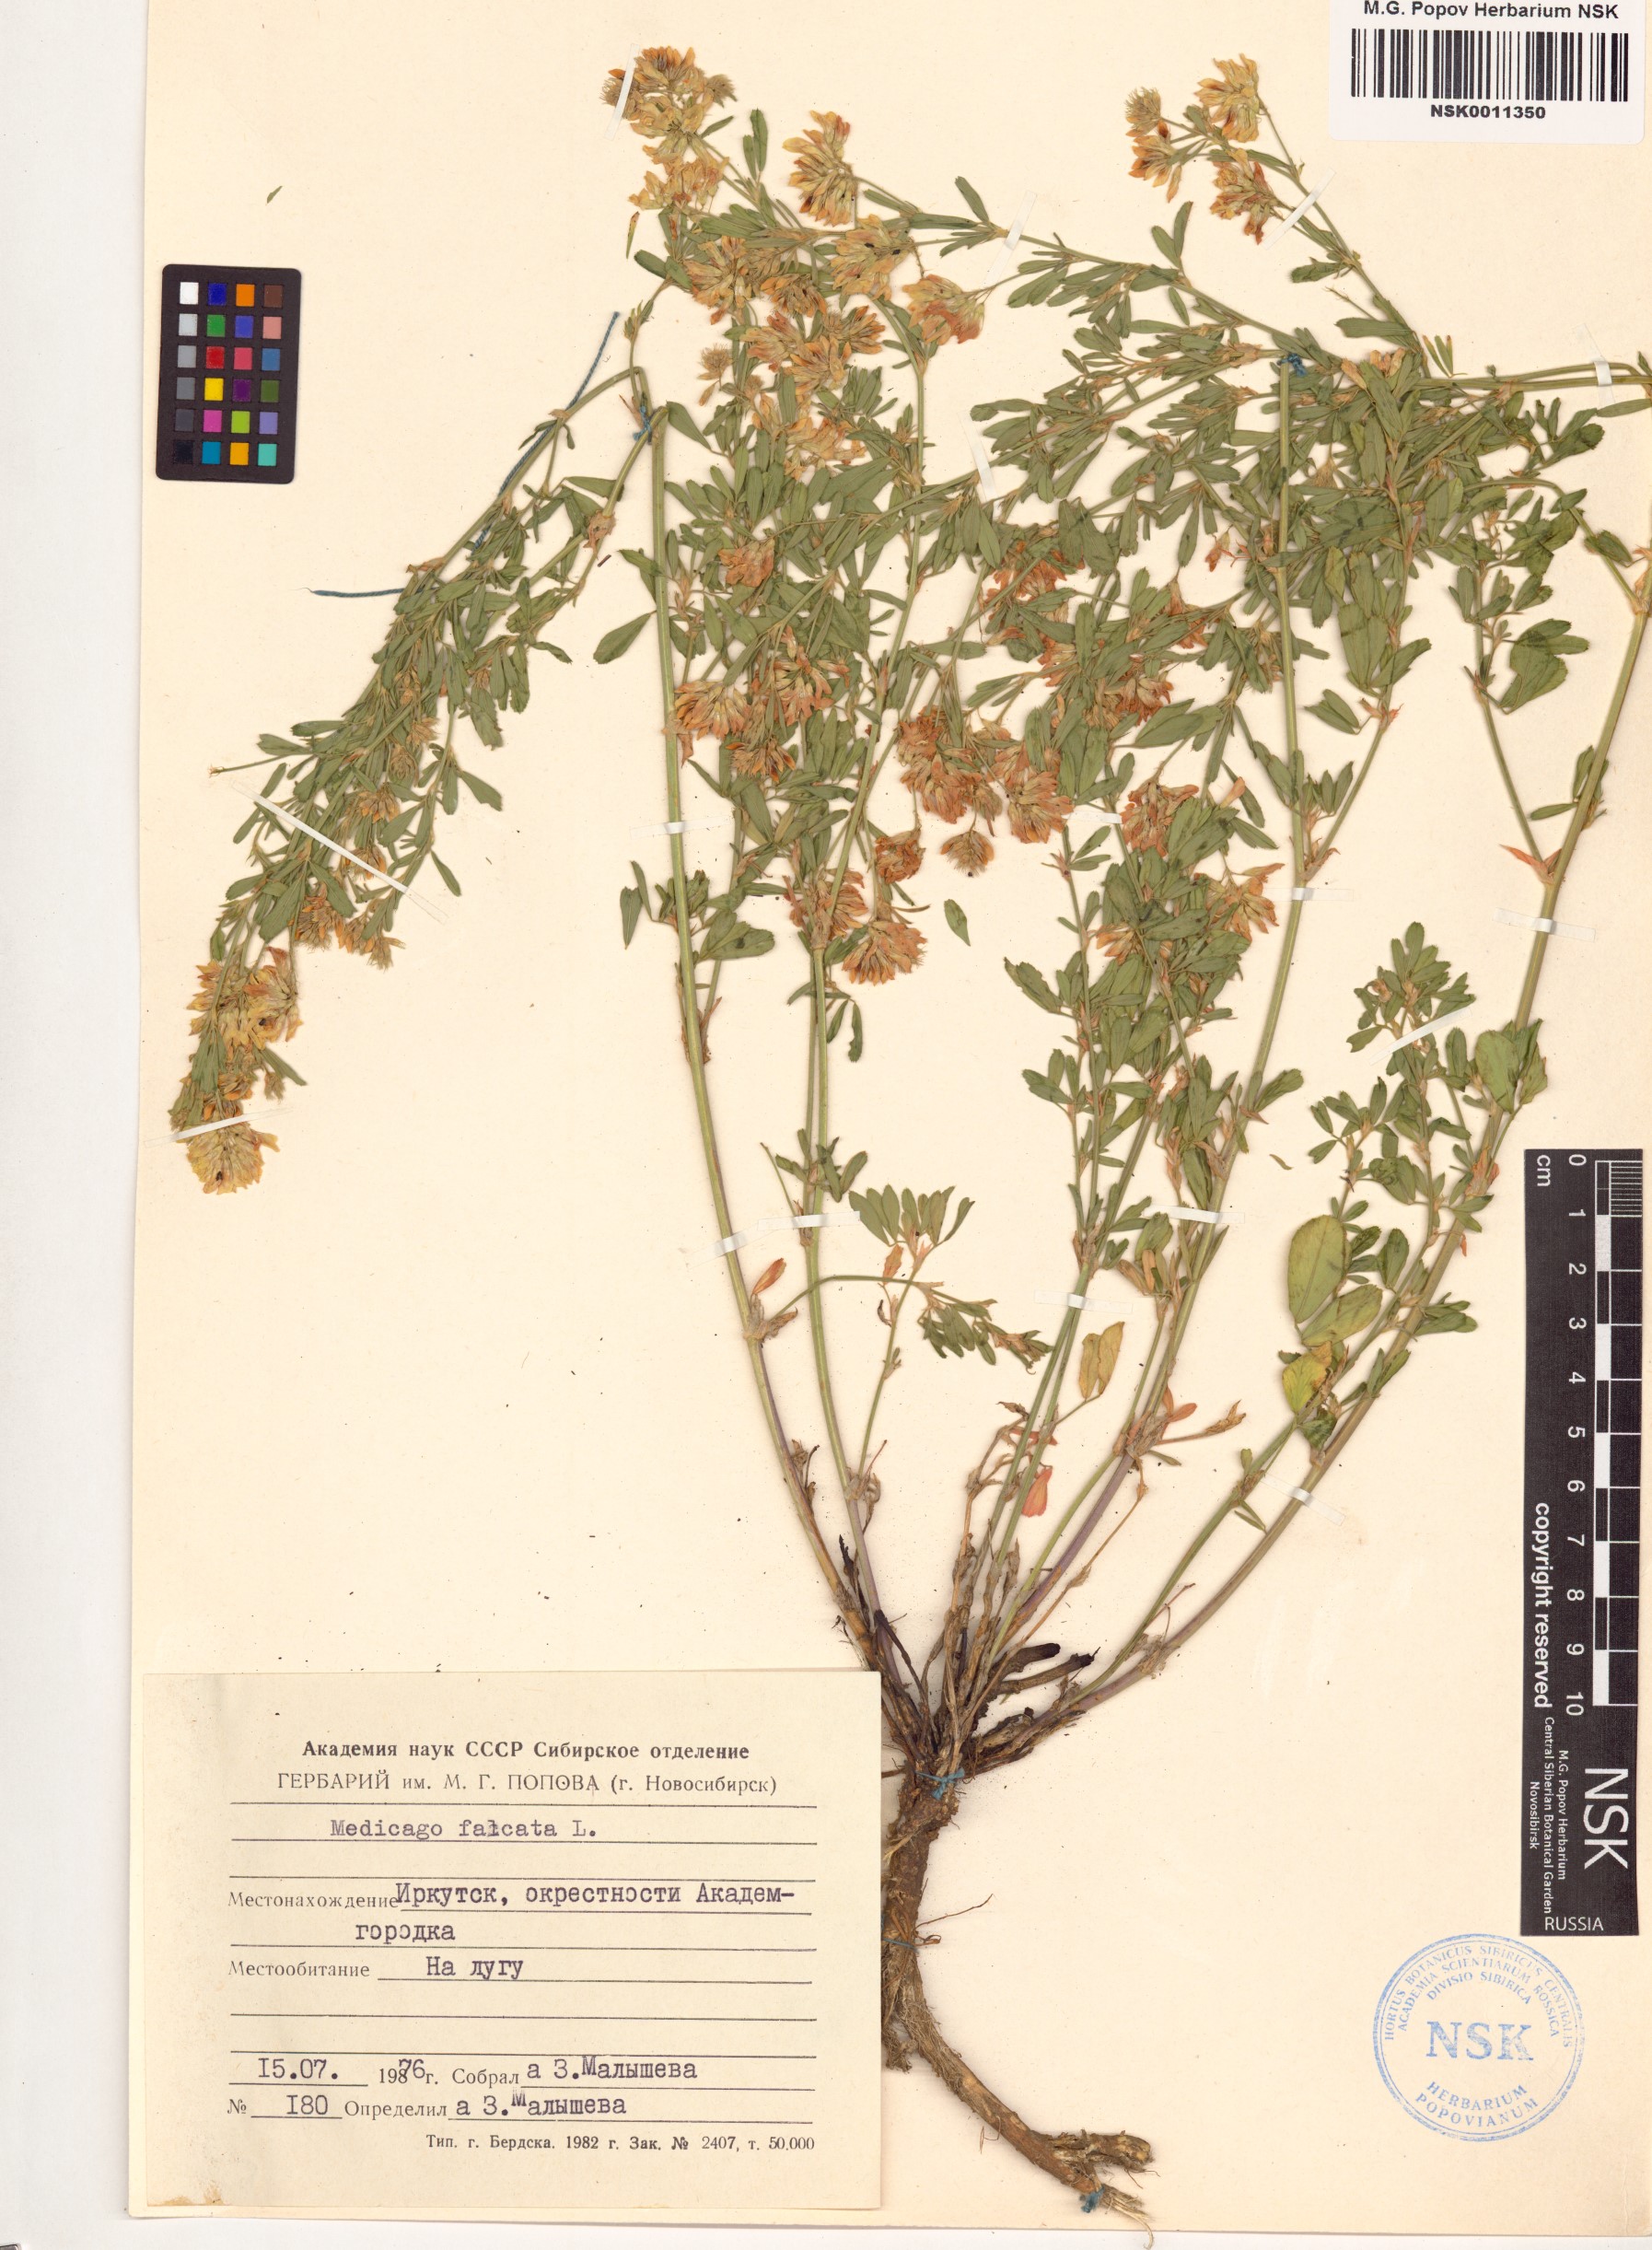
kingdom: Plantae
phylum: Tracheophyta
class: Magnoliopsida
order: Fabales
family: Fabaceae
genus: Medicago
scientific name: Medicago falcata
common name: Sickle medick
